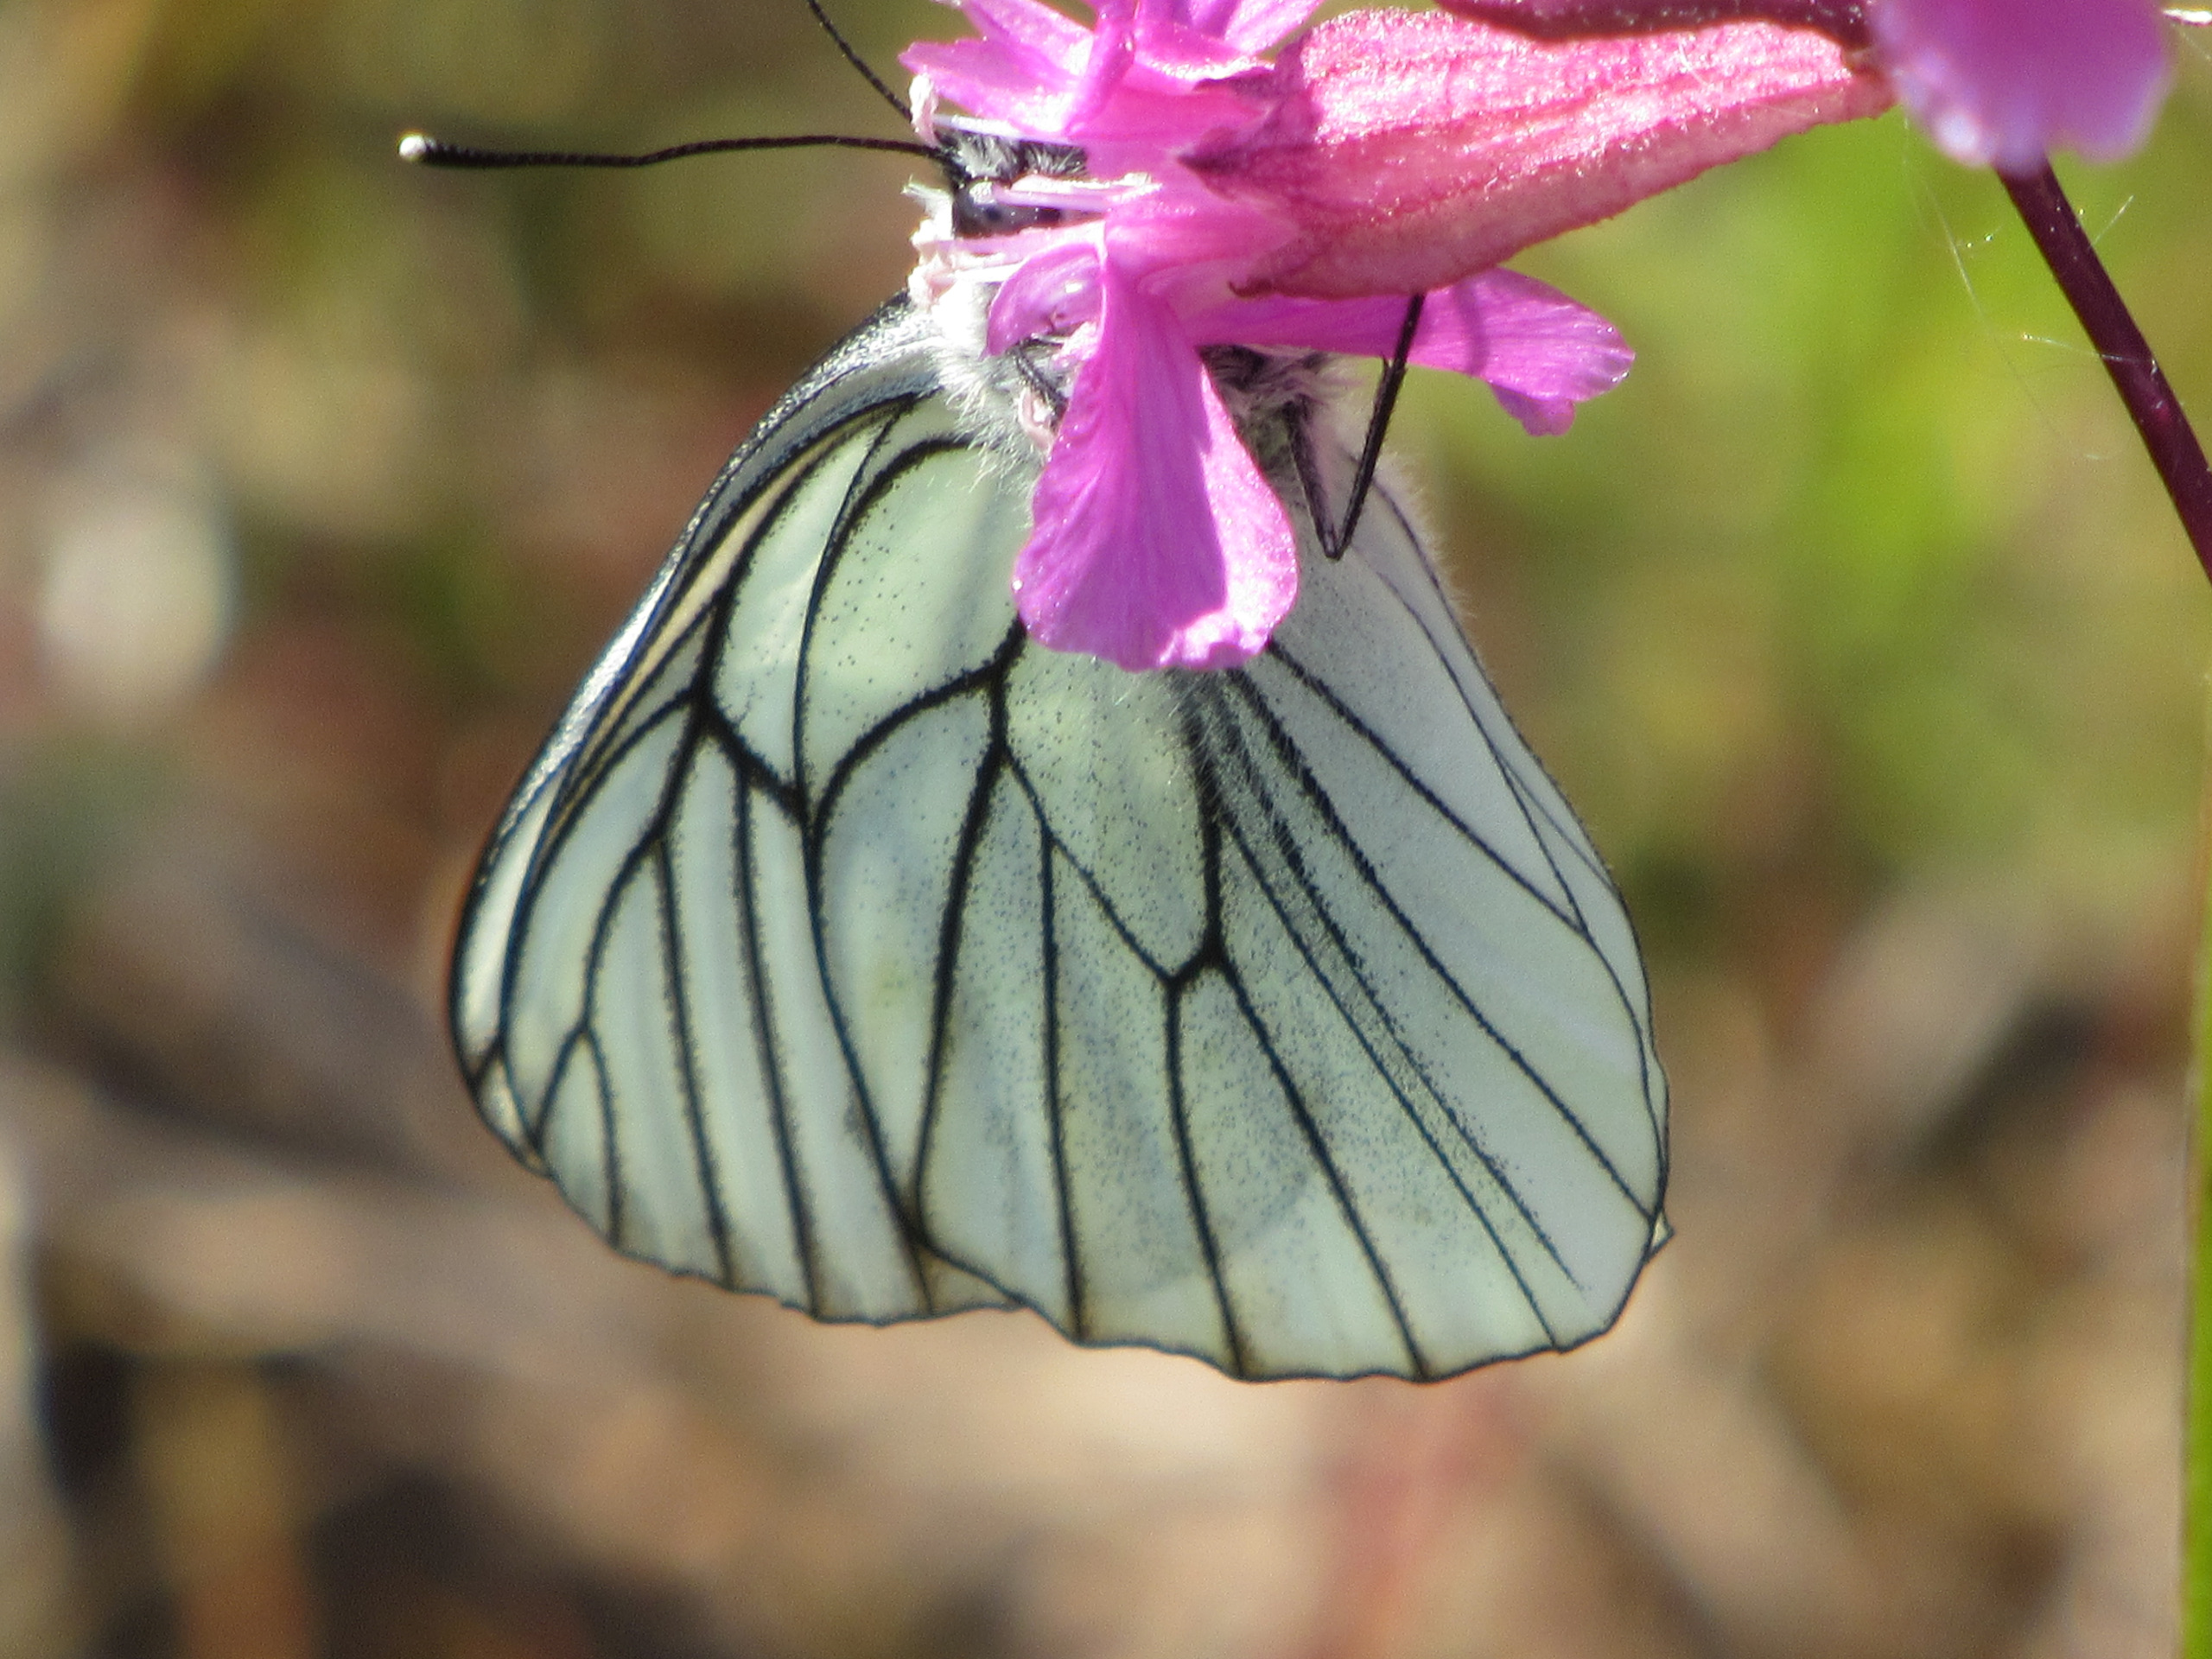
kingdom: Animalia
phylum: Arthropoda
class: Insecta
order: Lepidoptera
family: Pieridae
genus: Aporia
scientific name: Aporia crataegi
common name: Sortåret hvidvinge
